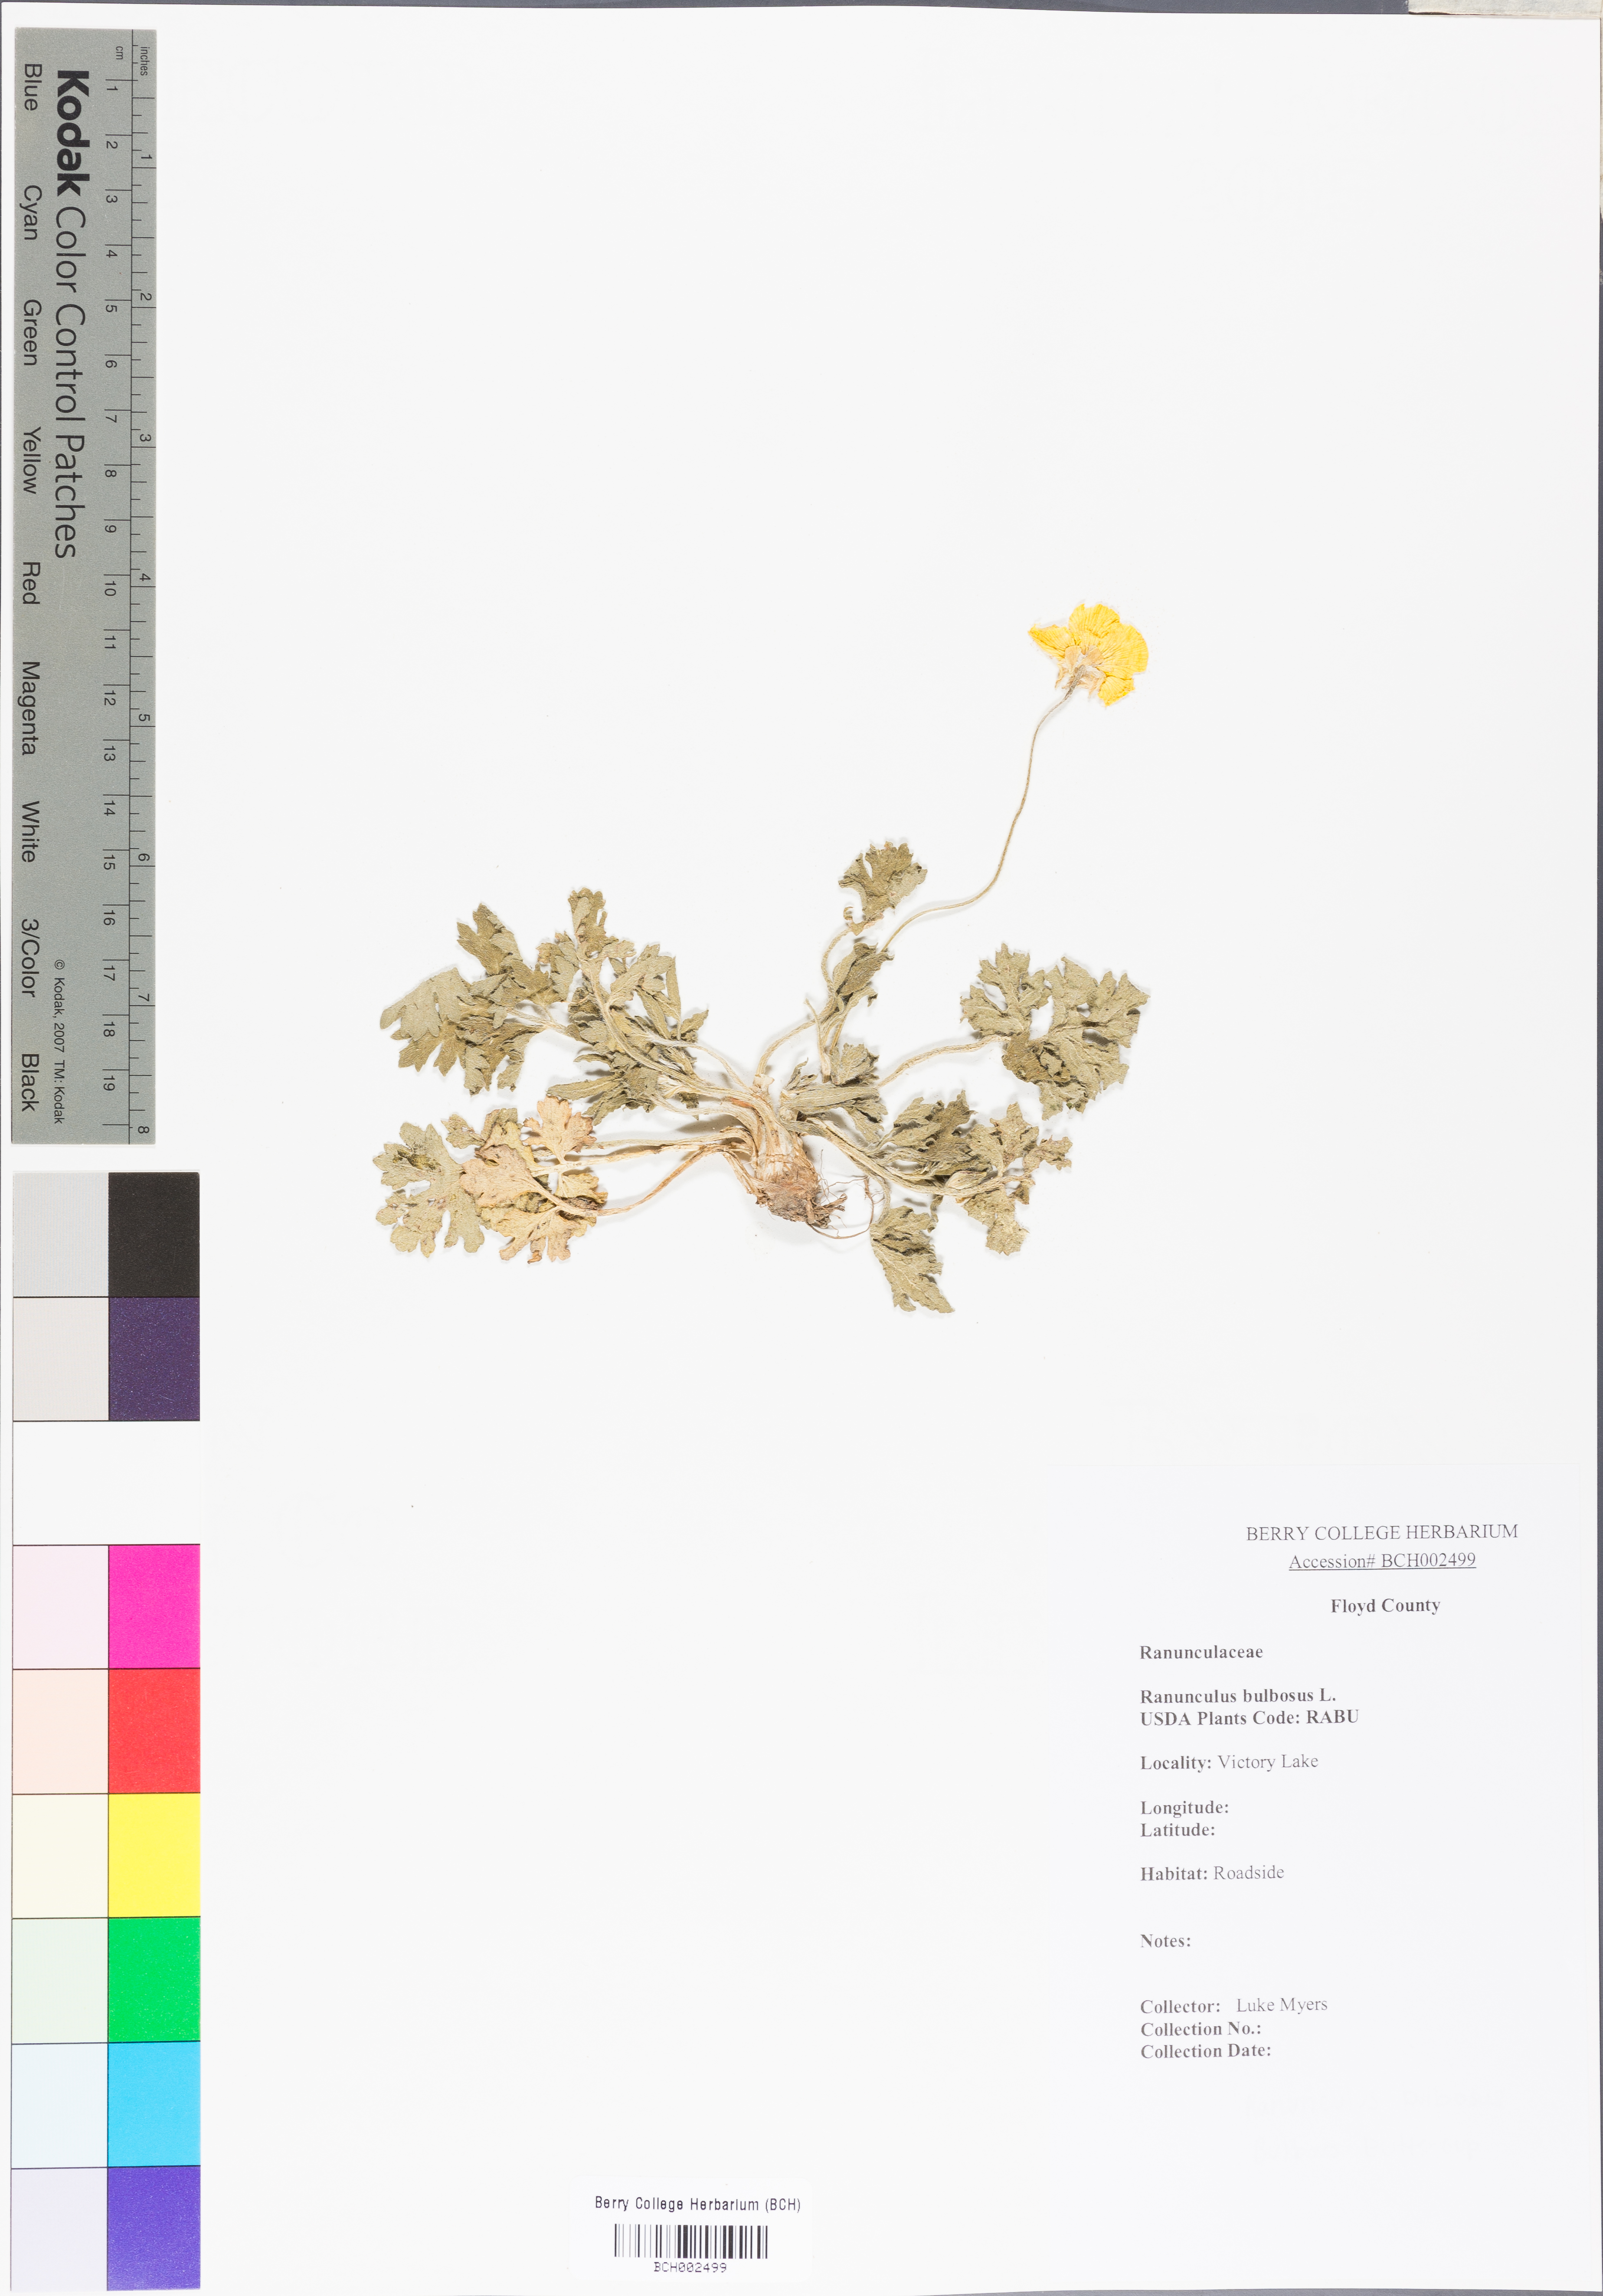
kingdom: Plantae
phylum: Tracheophyta
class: Magnoliopsida
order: Ranunculales
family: Ranunculaceae
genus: Ranunculus
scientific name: Ranunculus bulbosus
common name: Bulbous buttercup
